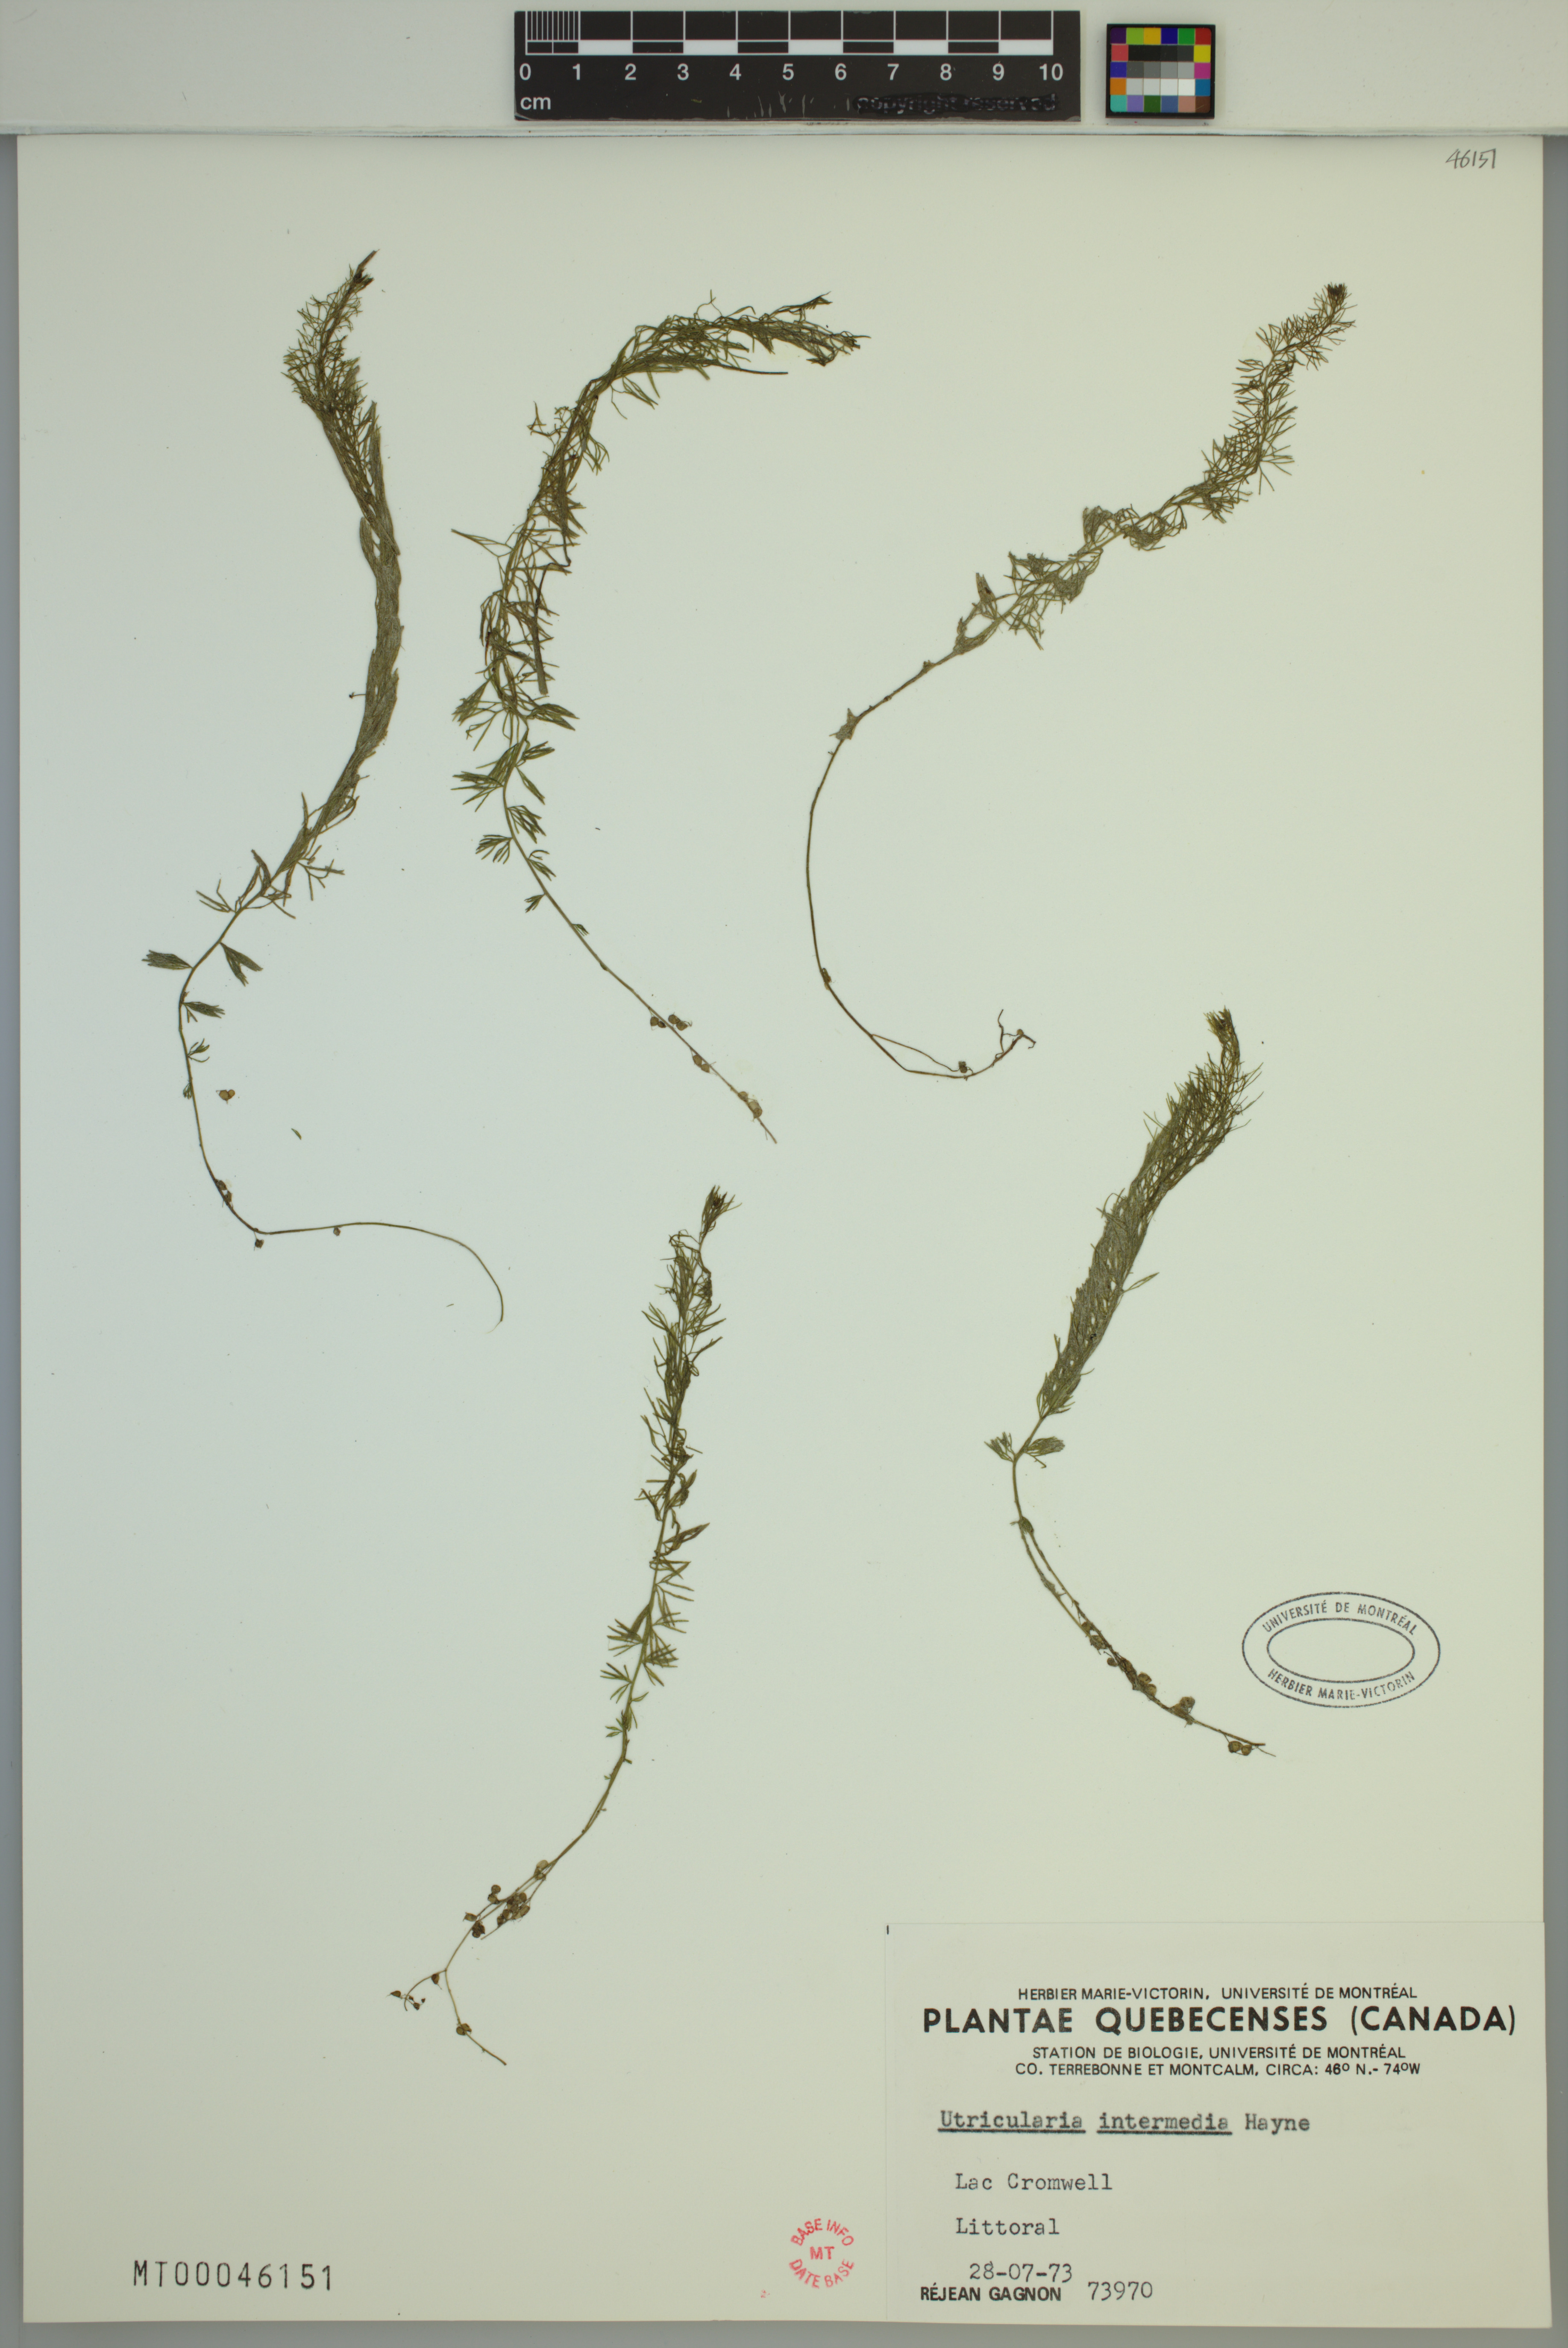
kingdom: Plantae
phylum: Tracheophyta
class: Magnoliopsida
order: Lamiales
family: Lentibulariaceae
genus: Utricularia
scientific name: Utricularia intermedia
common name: Intermediate bladderwort
